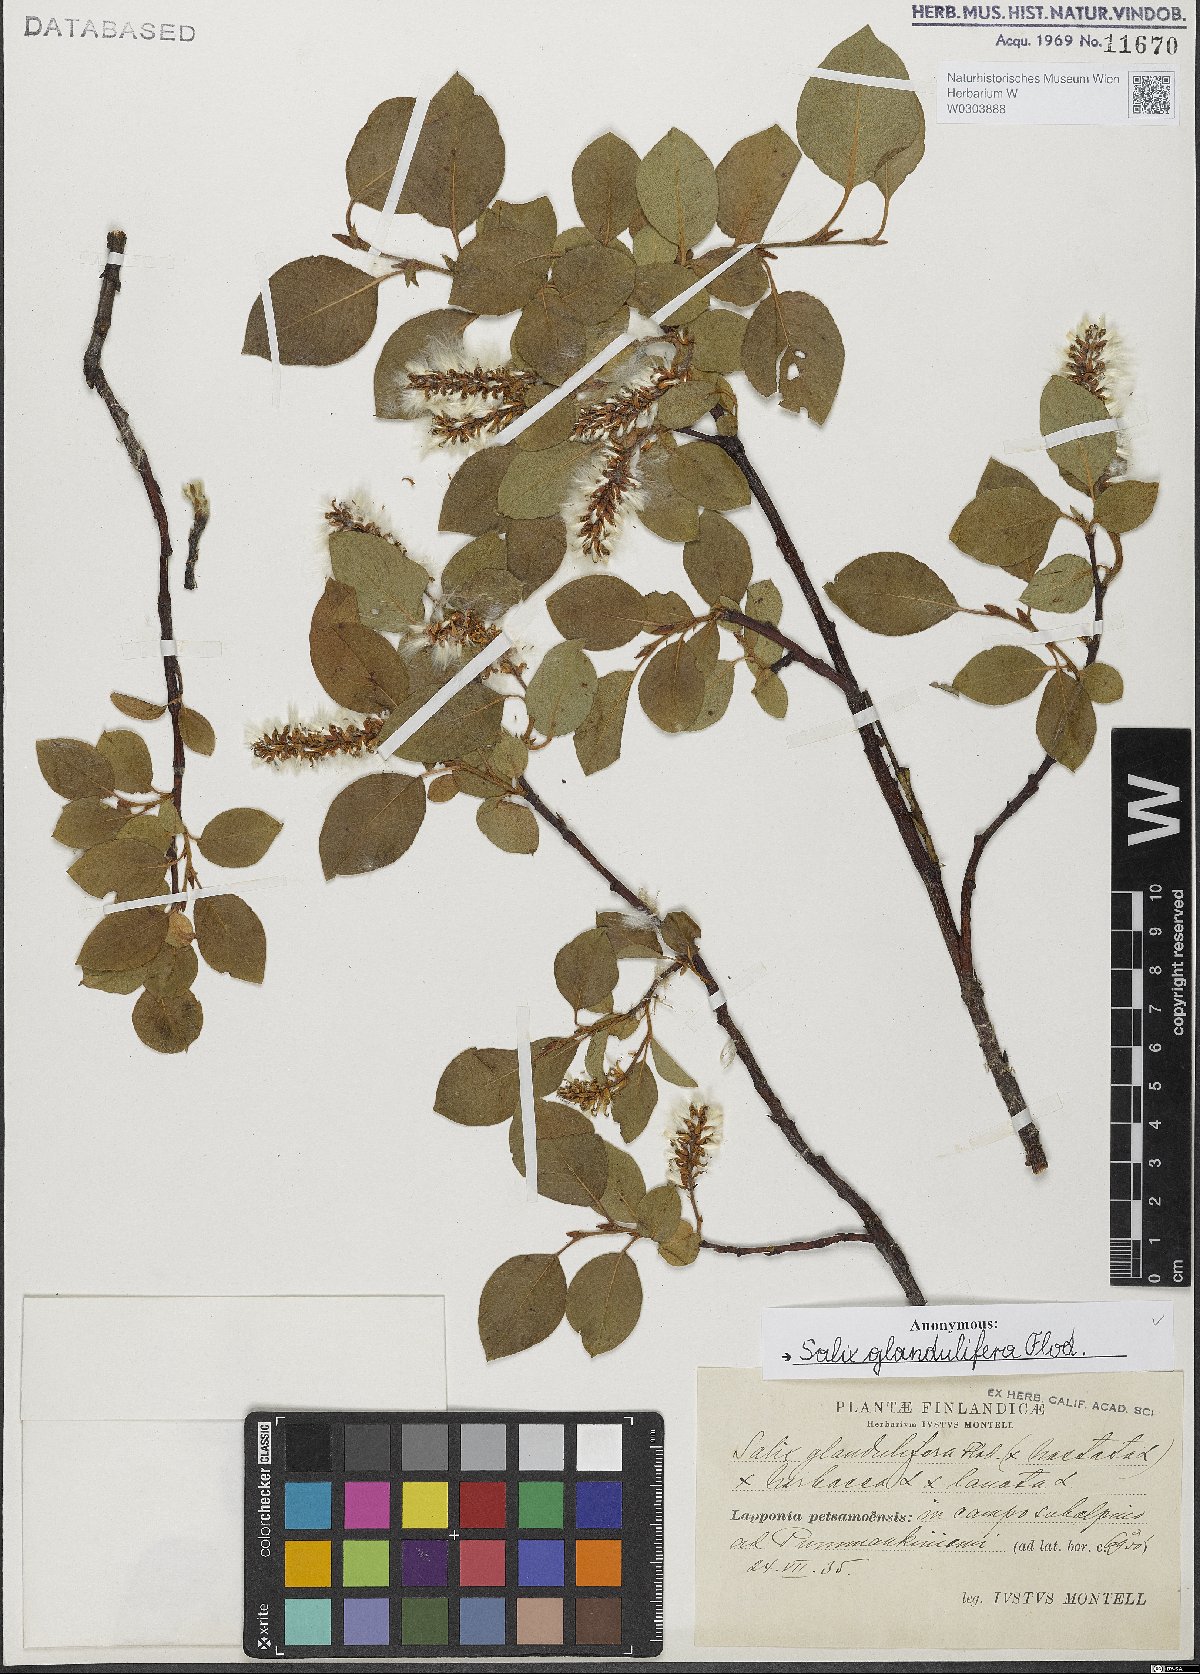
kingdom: Plantae
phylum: Tracheophyta
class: Magnoliopsida
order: Malpighiales
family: Salicaceae
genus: Salix
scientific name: Salix lanata
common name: Woolly willow
